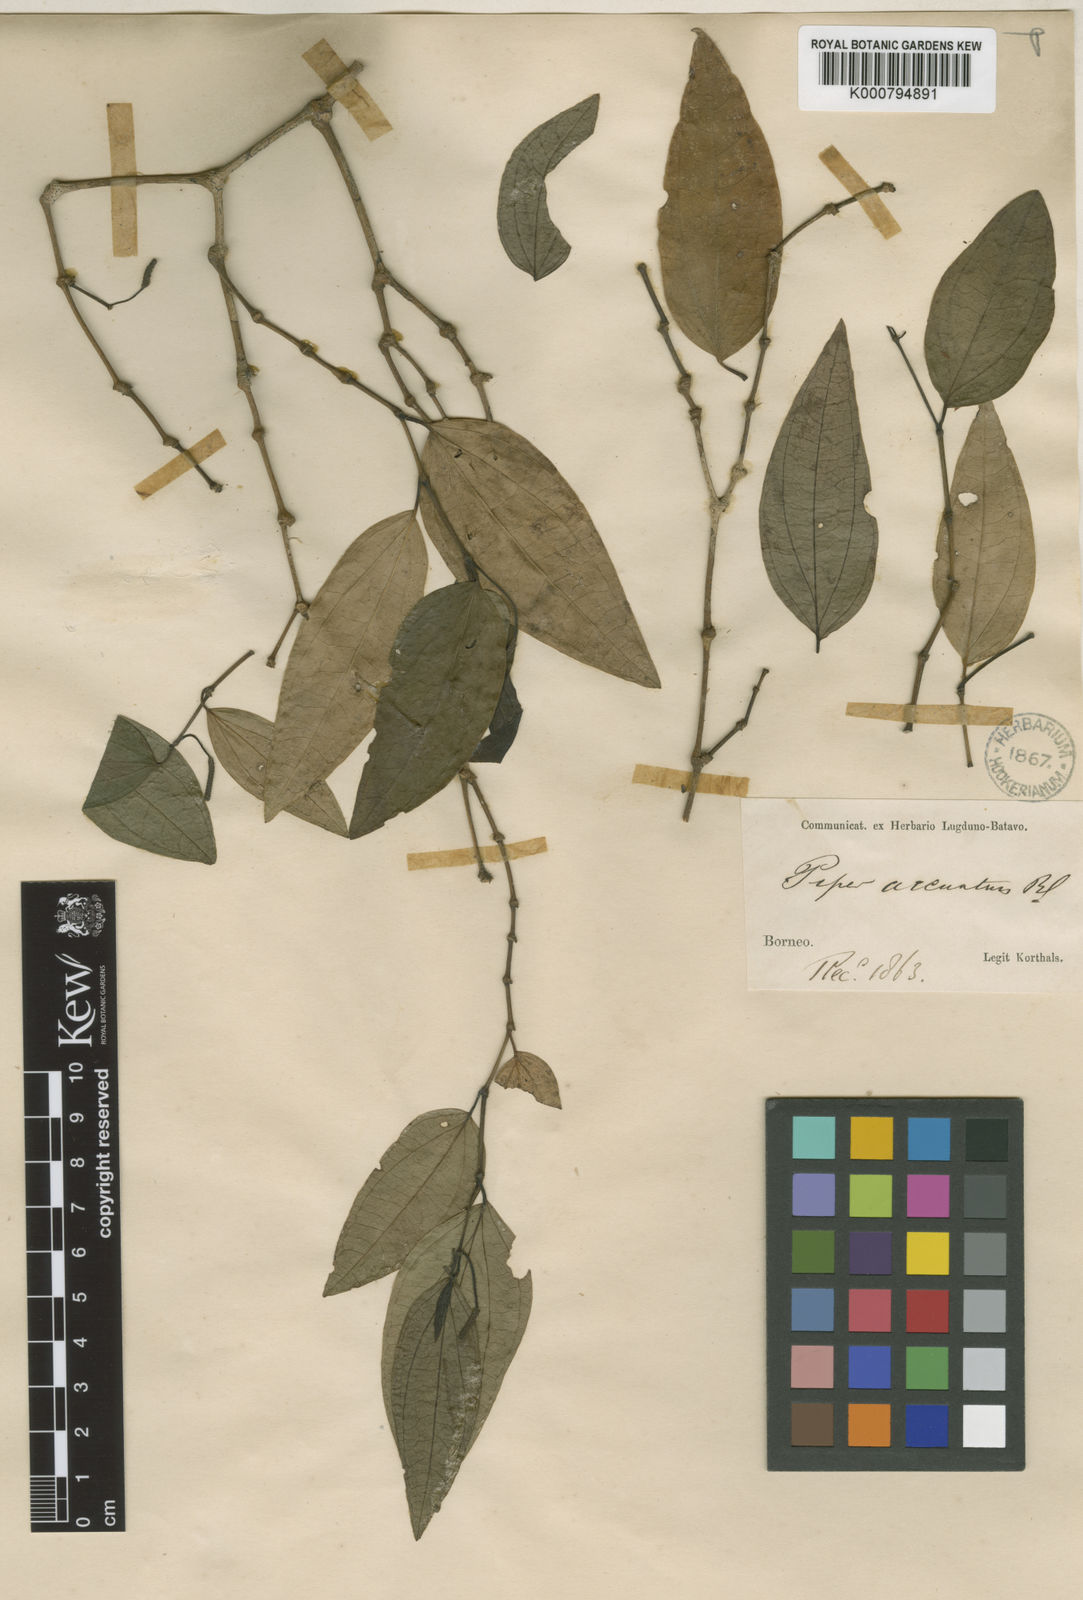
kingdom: Plantae
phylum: Tracheophyta
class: Magnoliopsida
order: Piperales
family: Piperaceae
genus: Piper
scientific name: Piper
